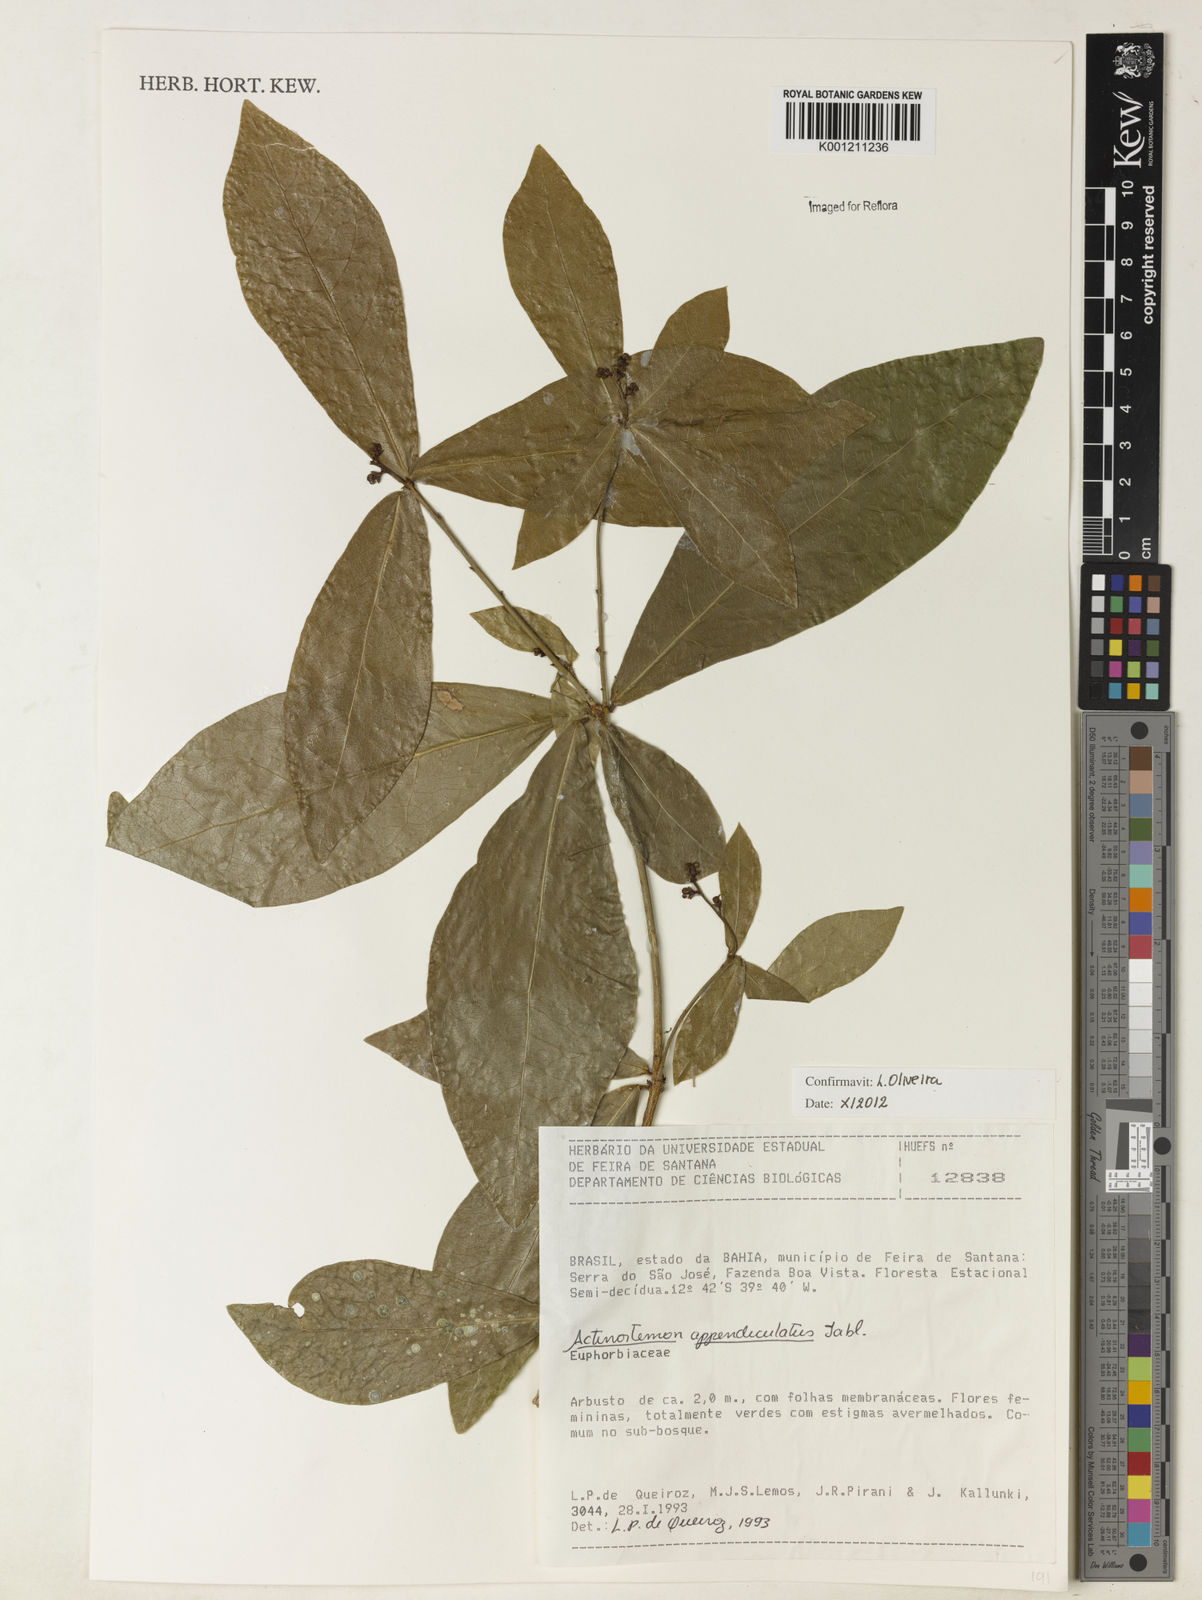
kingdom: Plantae
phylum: Tracheophyta
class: Magnoliopsida
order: Malpighiales
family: Euphorbiaceae
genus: Actinostemon
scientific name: Actinostemon lasiocarpus
